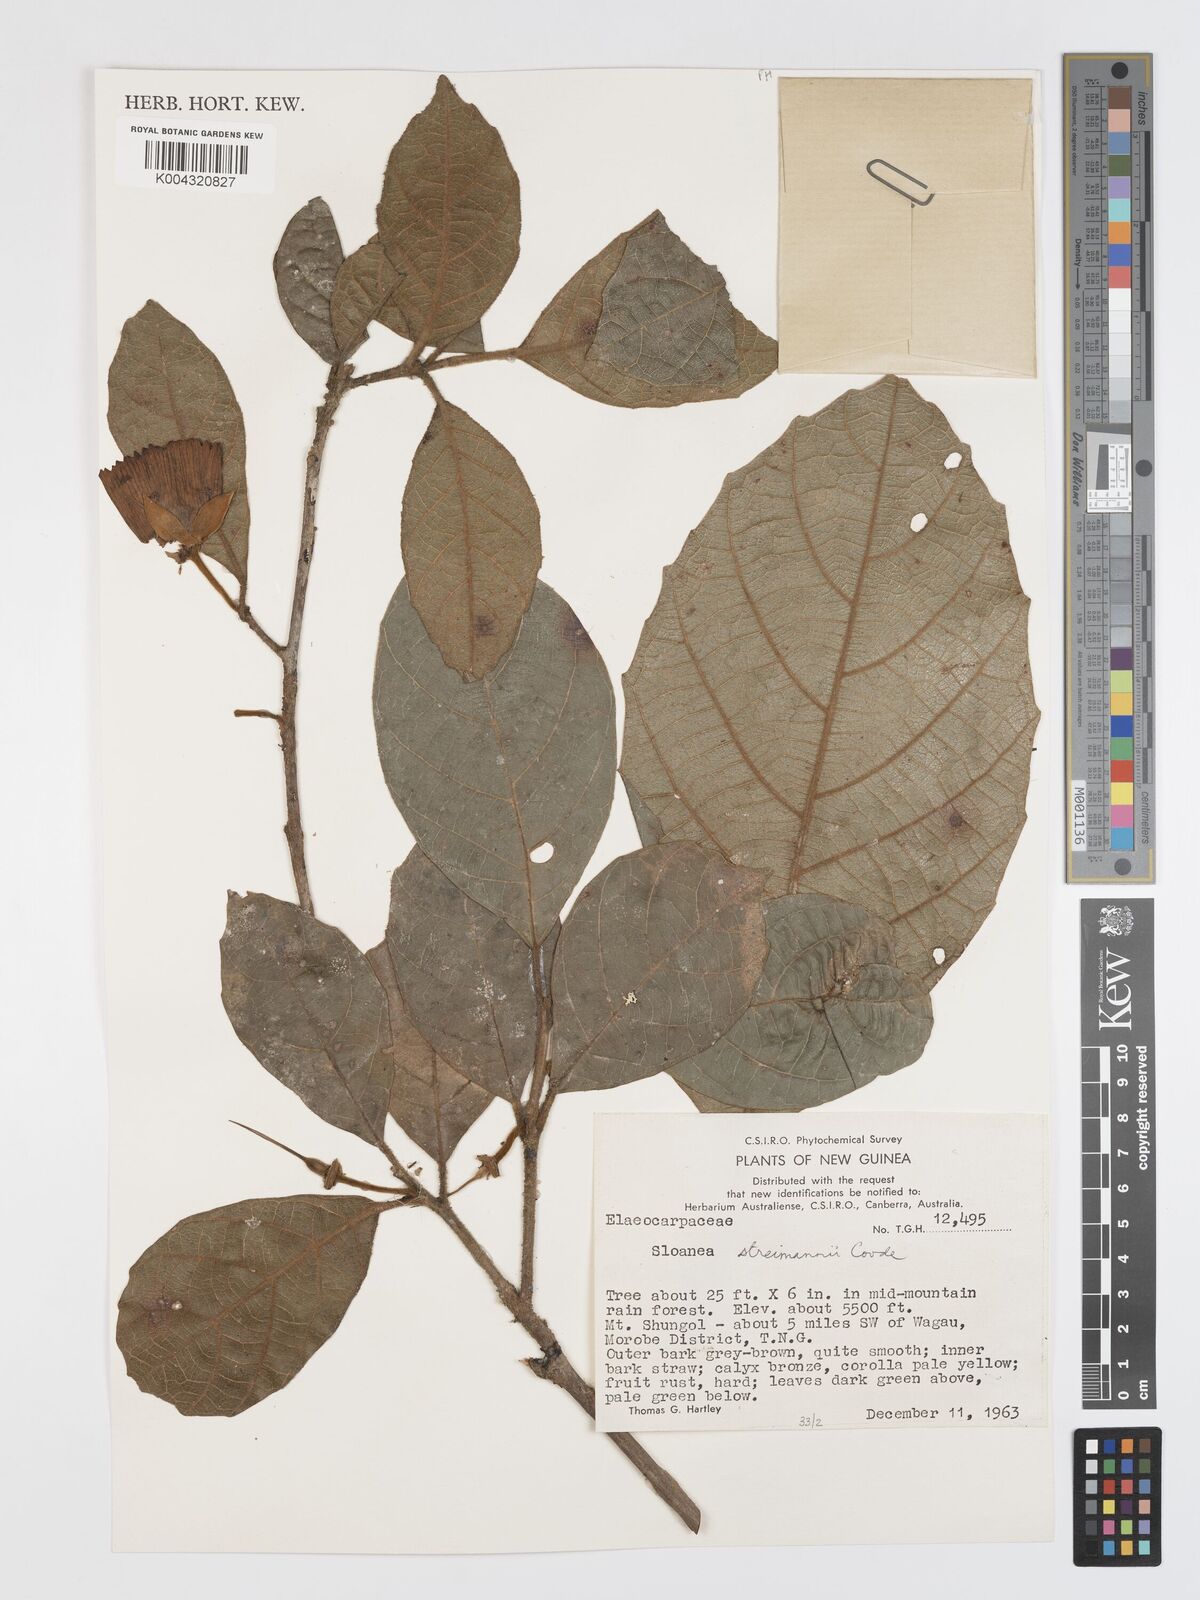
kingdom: Plantae
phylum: Tracheophyta
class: Magnoliopsida
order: Oxalidales
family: Elaeocarpaceae
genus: Sloanea
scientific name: Sloanea streimannii
